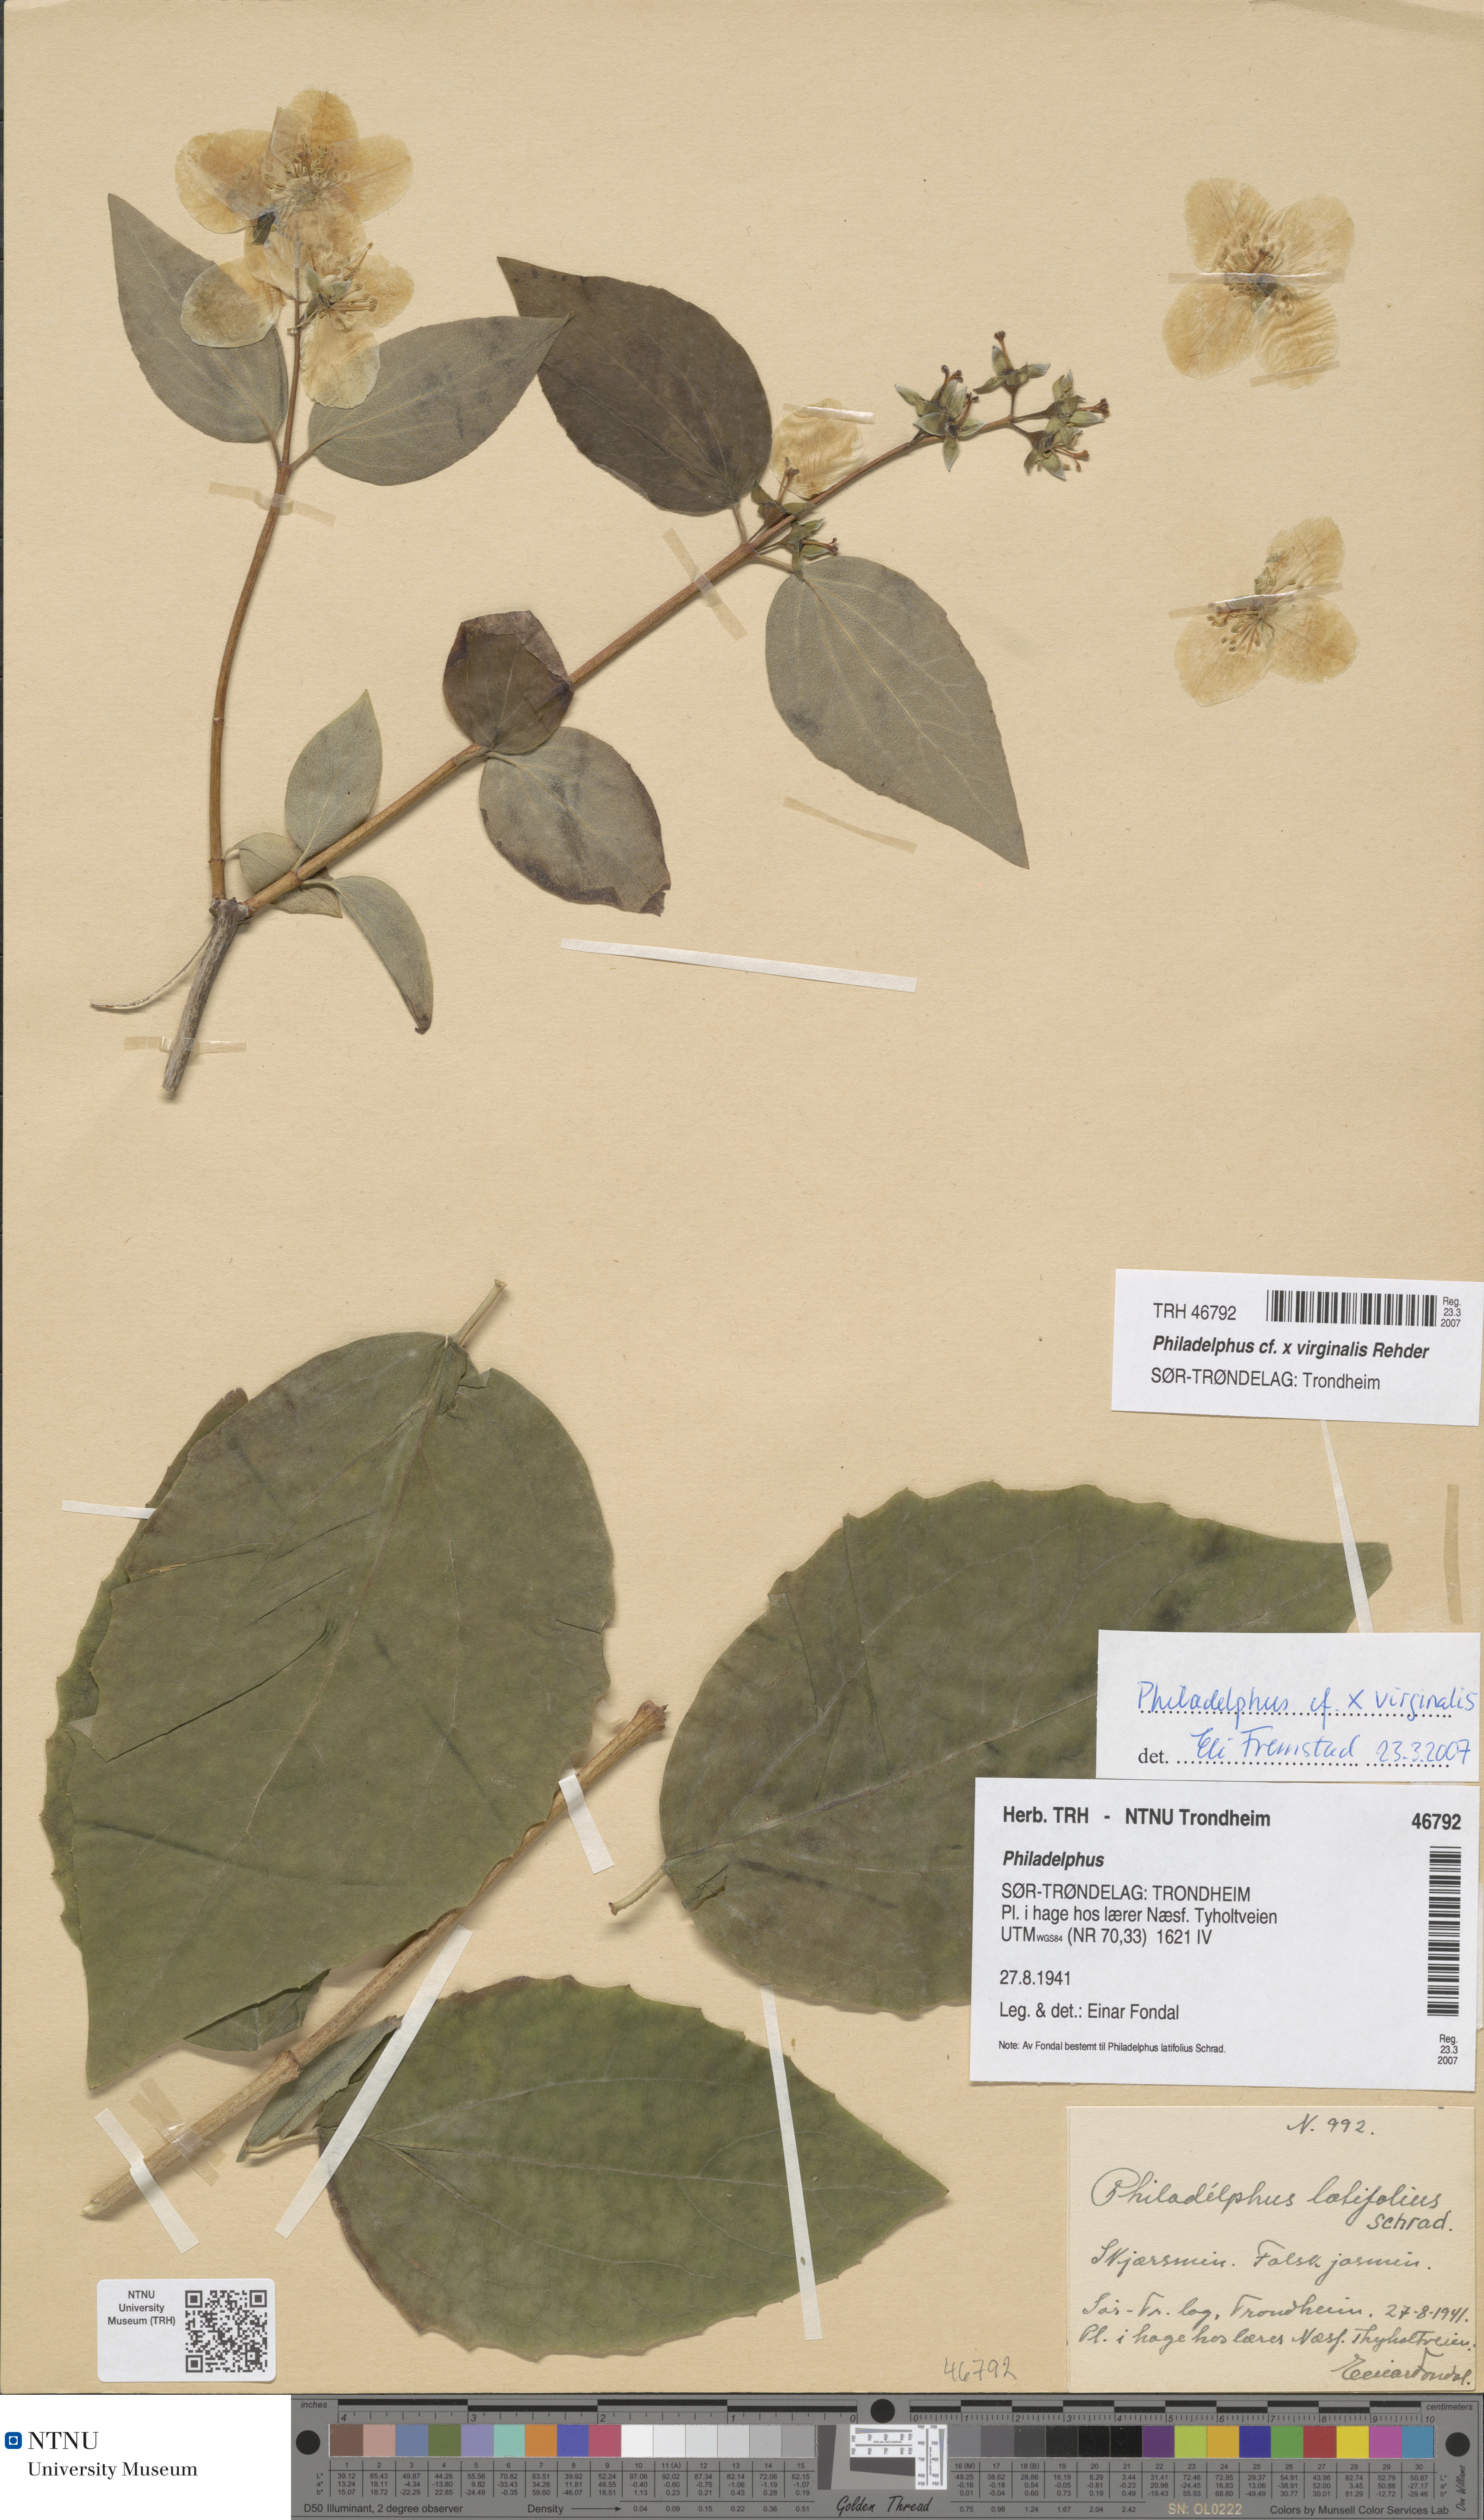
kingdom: Plantae
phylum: Tracheophyta
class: Magnoliopsida
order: Cornales
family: Hydrangeaceae
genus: Philadelphus
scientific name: Philadelphus virginalis
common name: Hairy mock orange
